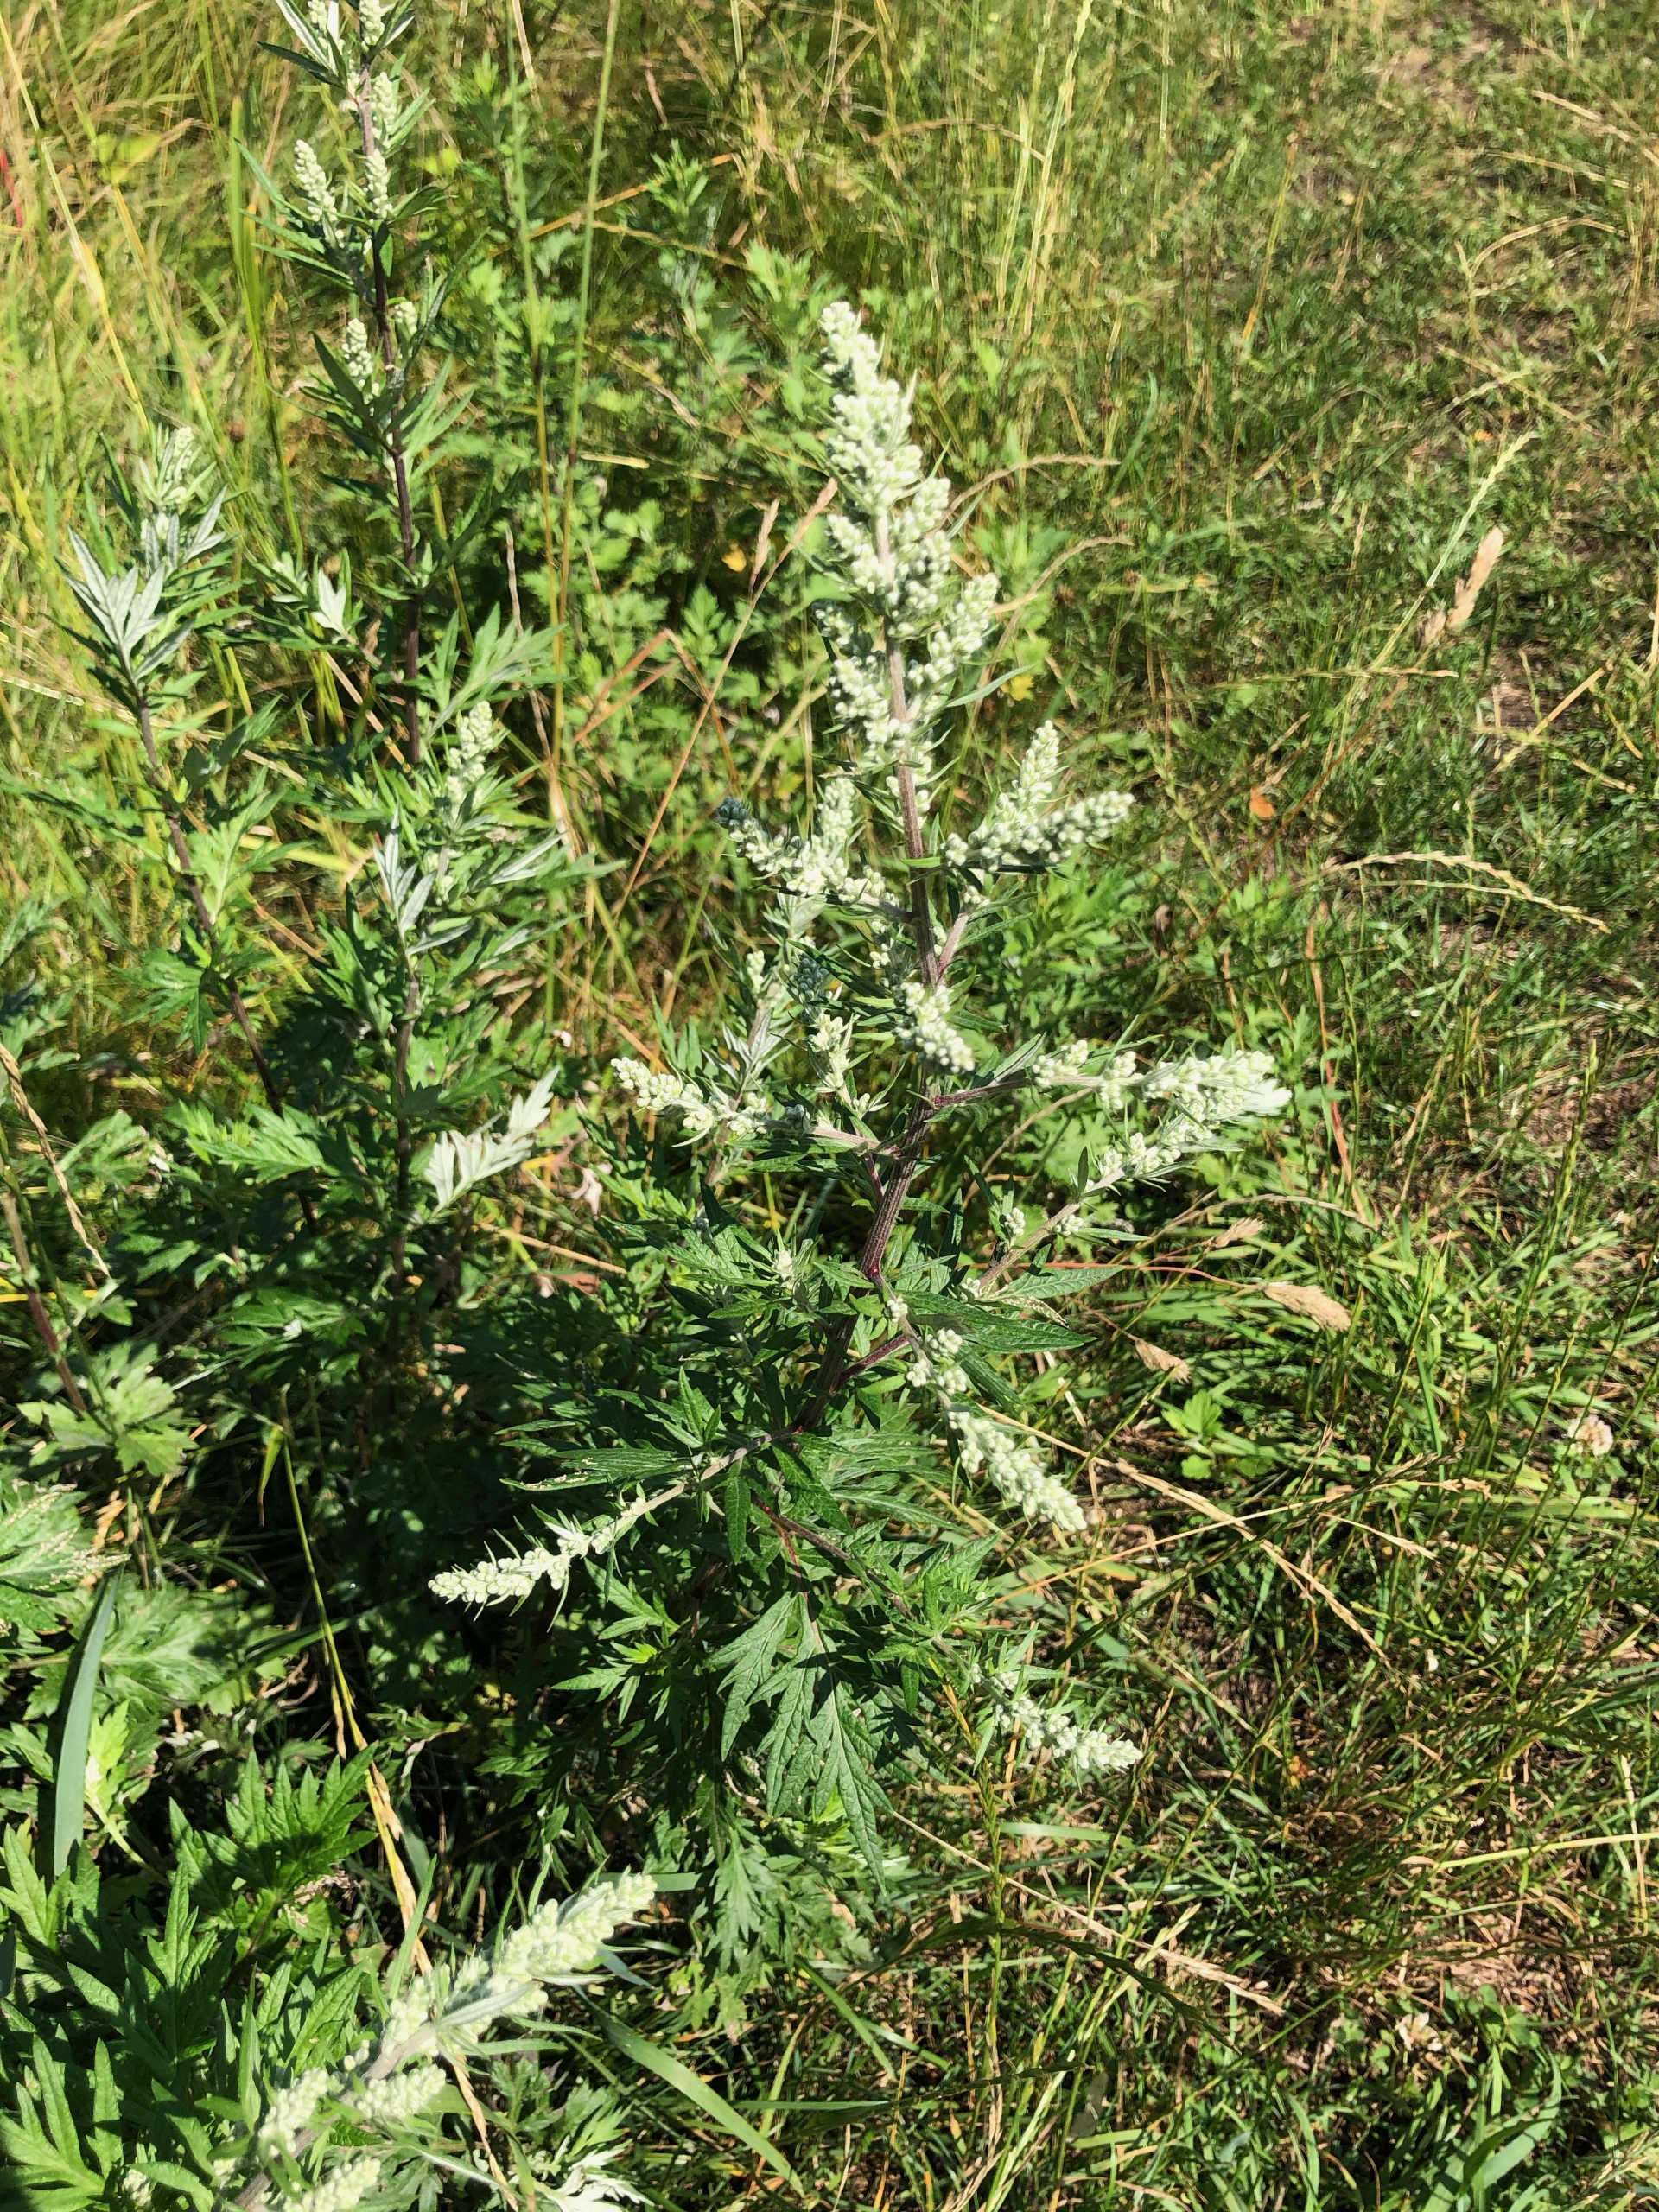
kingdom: Plantae
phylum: Tracheophyta
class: Magnoliopsida
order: Asterales
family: Asteraceae
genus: Artemisia
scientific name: Artemisia vulgaris
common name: Grå-bynke
